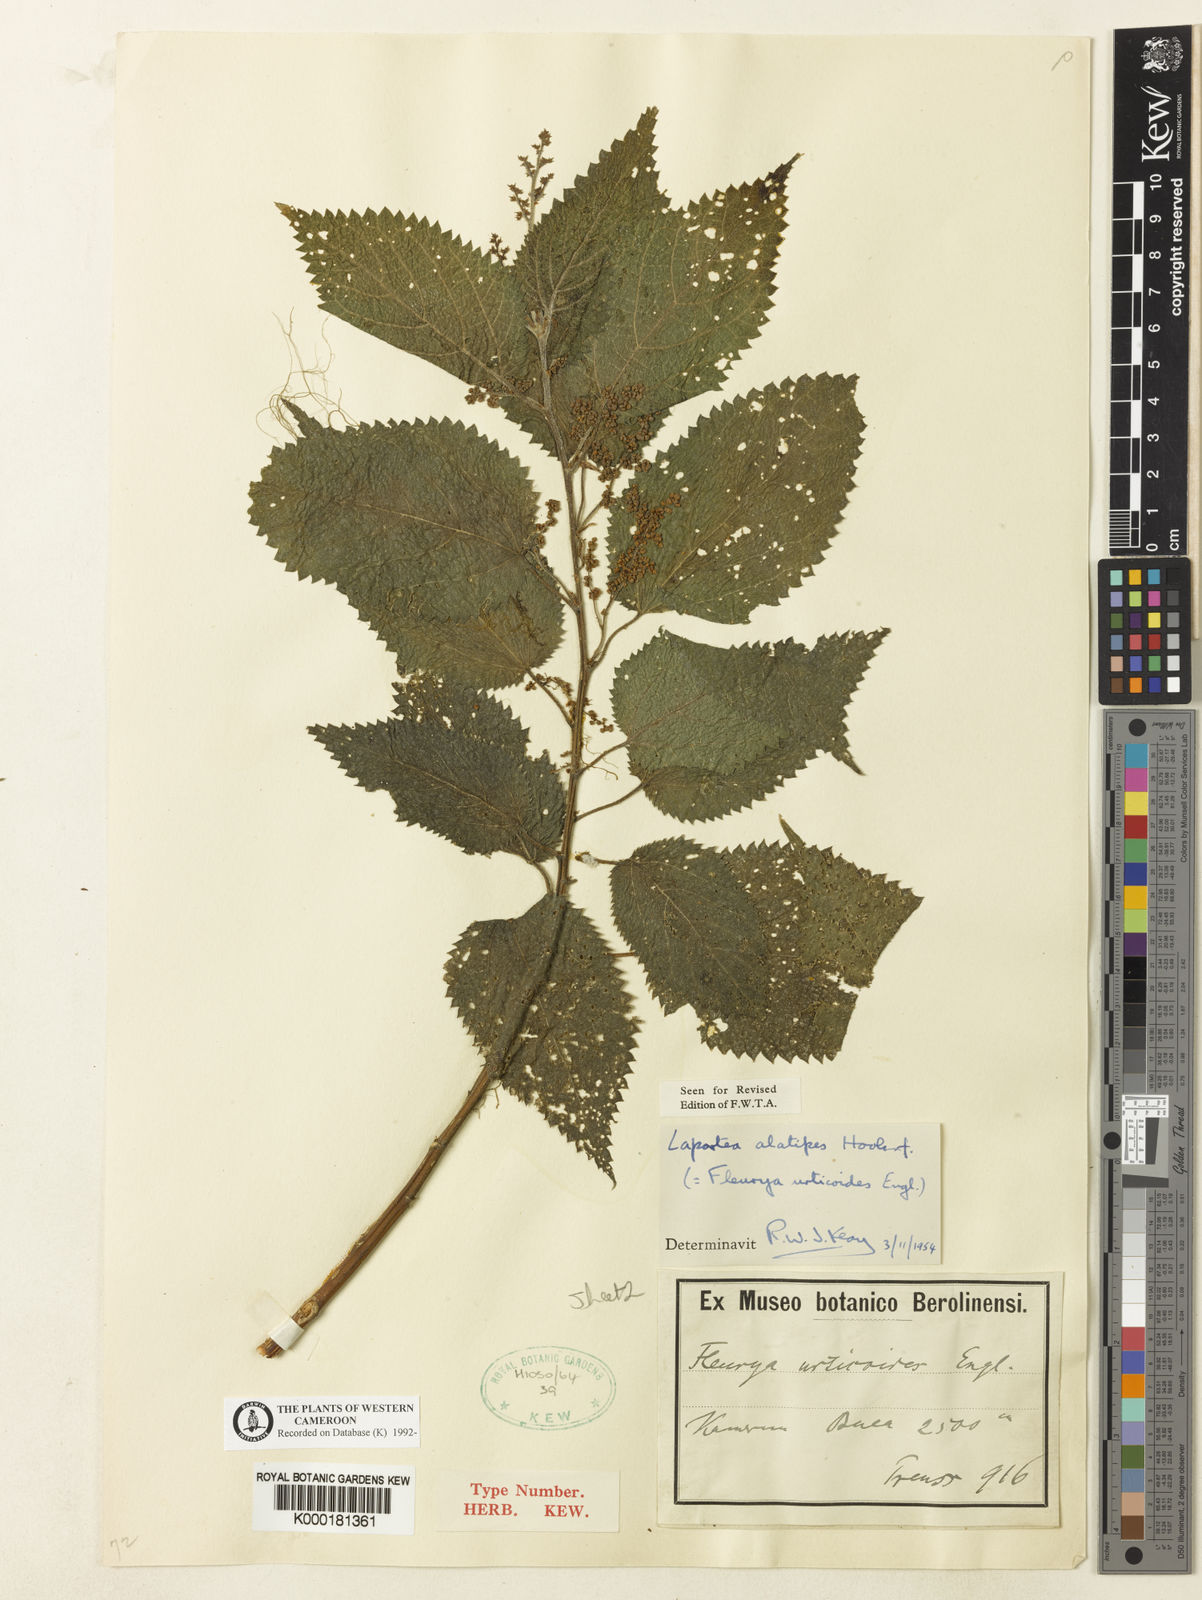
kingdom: Plantae
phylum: Tracheophyta
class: Magnoliopsida
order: Rosales
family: Urticaceae
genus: Laportea
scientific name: Laportea alatipes
